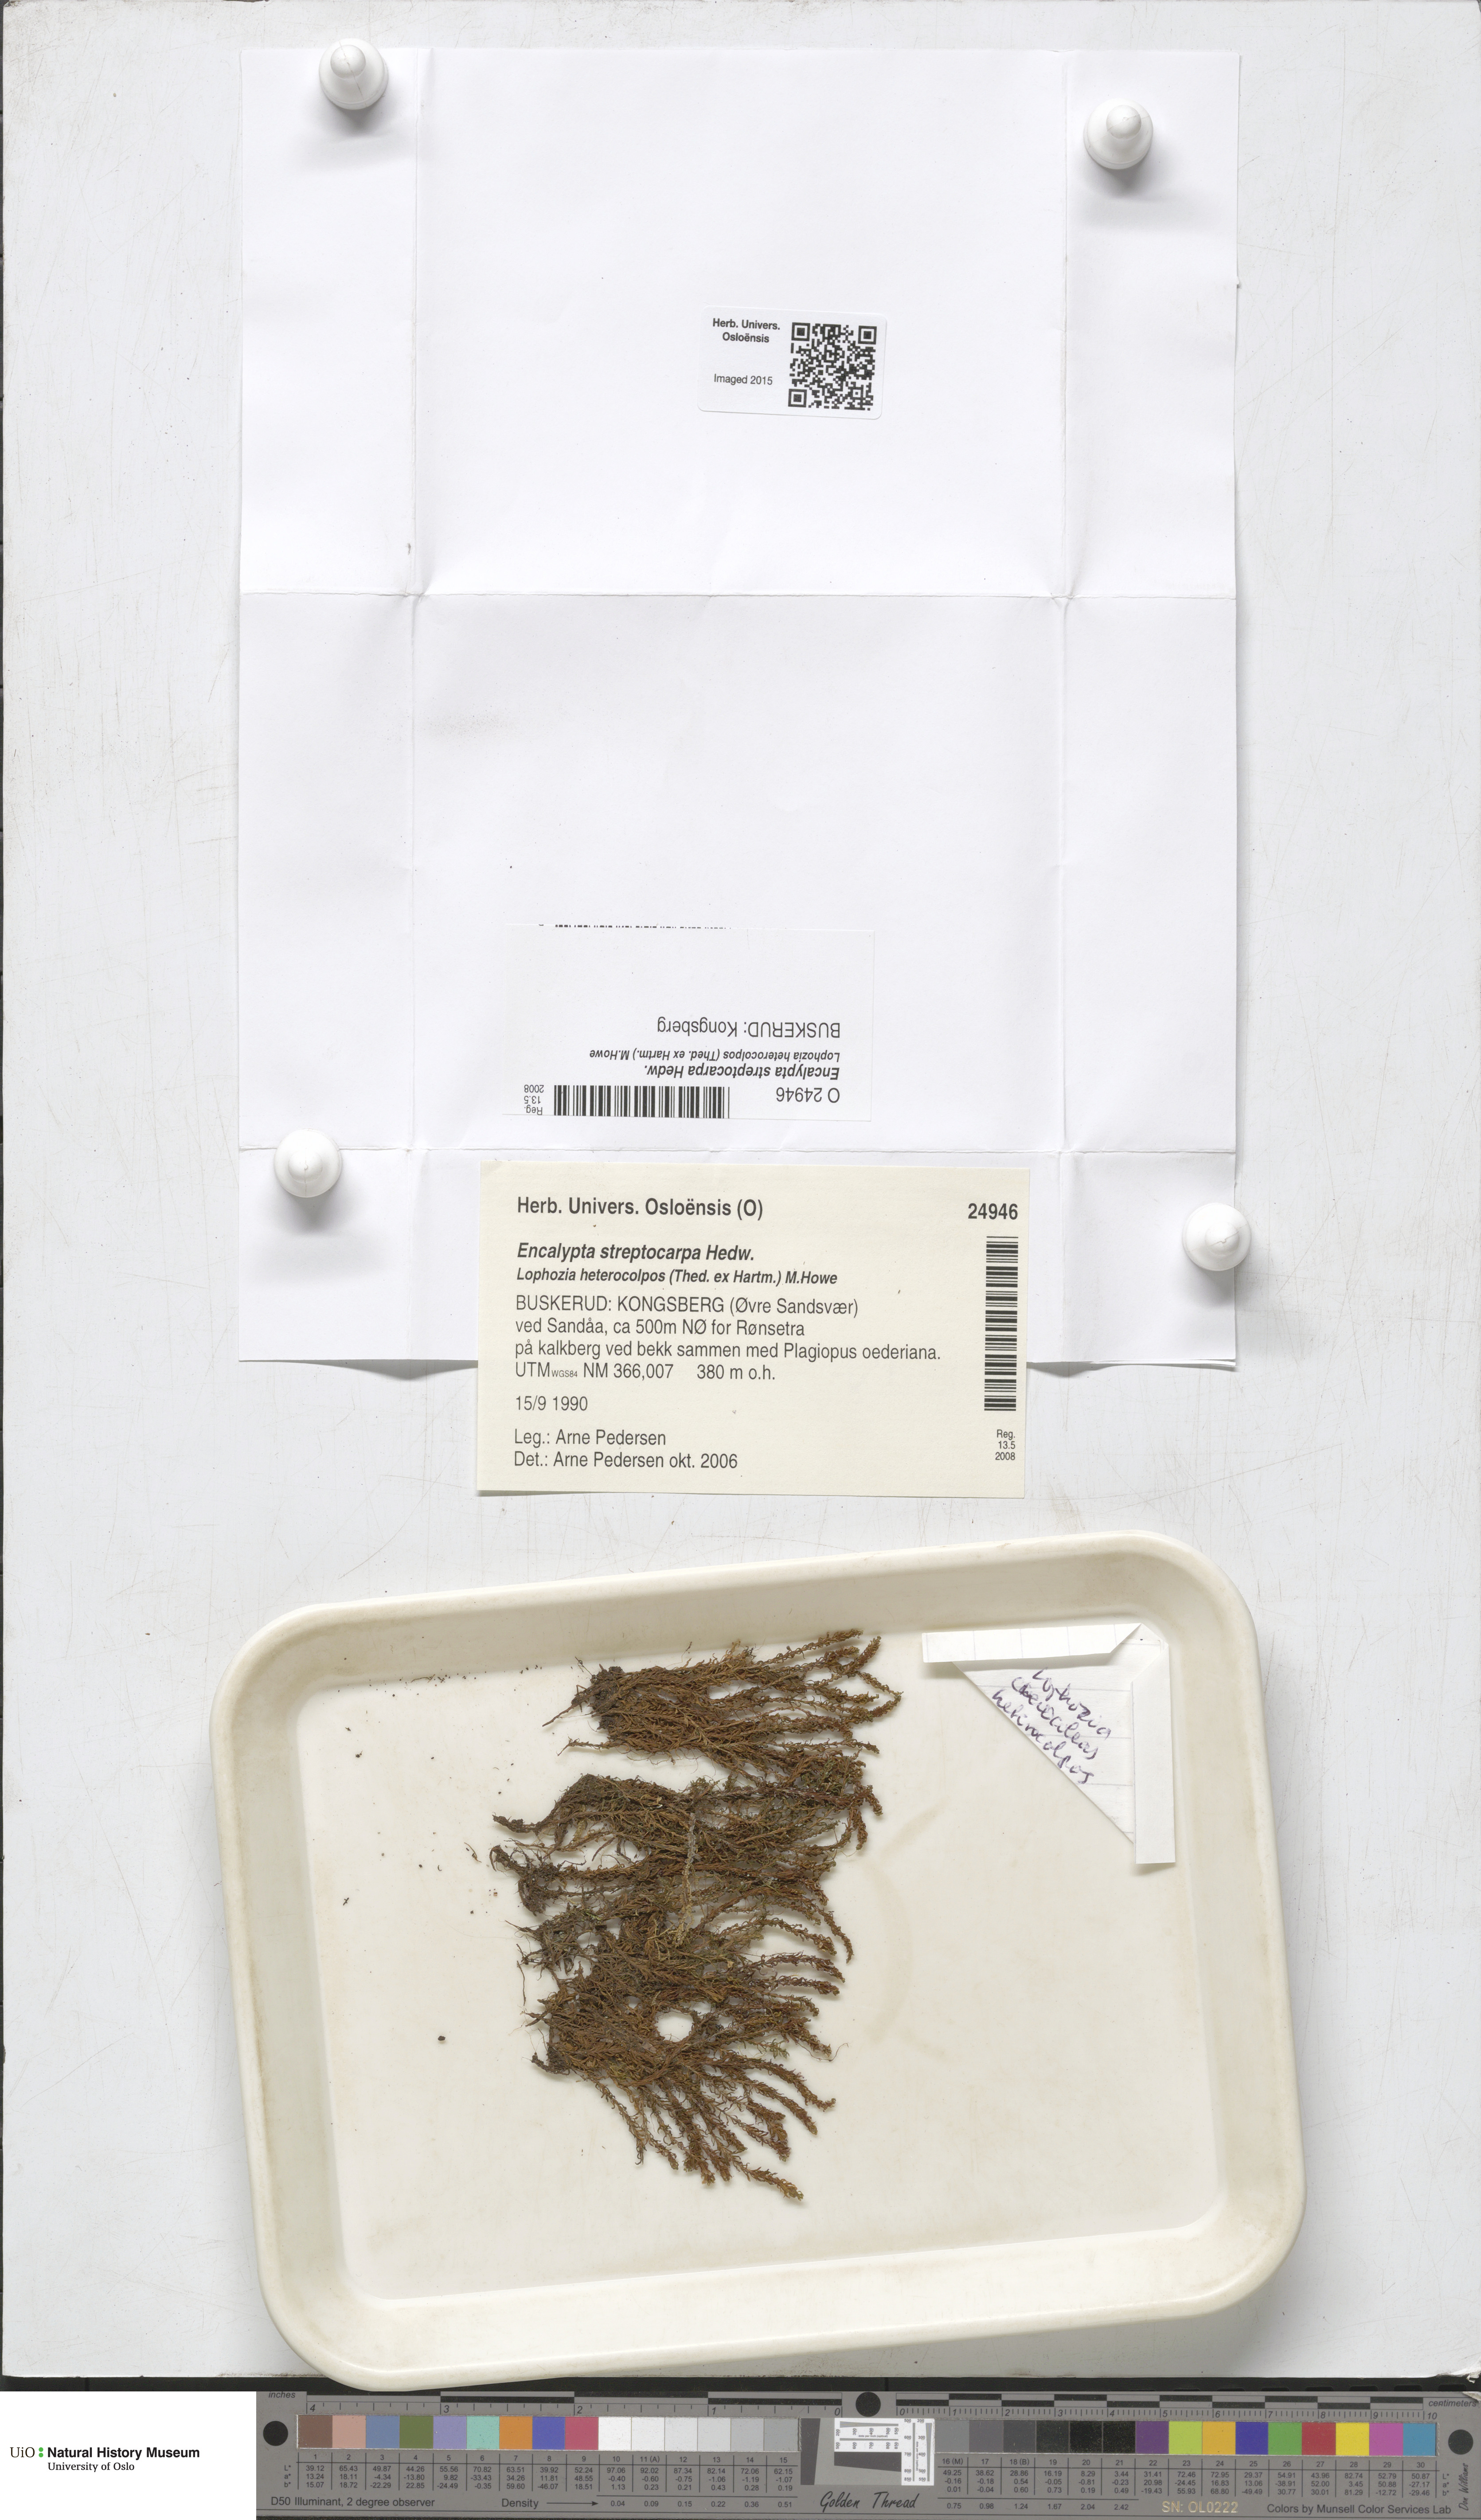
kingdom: Plantae
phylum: Bryophyta
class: Bryopsida
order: Encalyptales
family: Encalyptaceae
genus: Encalypta
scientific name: Encalypta streptocarpa
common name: Spiral extinguisher-moss
